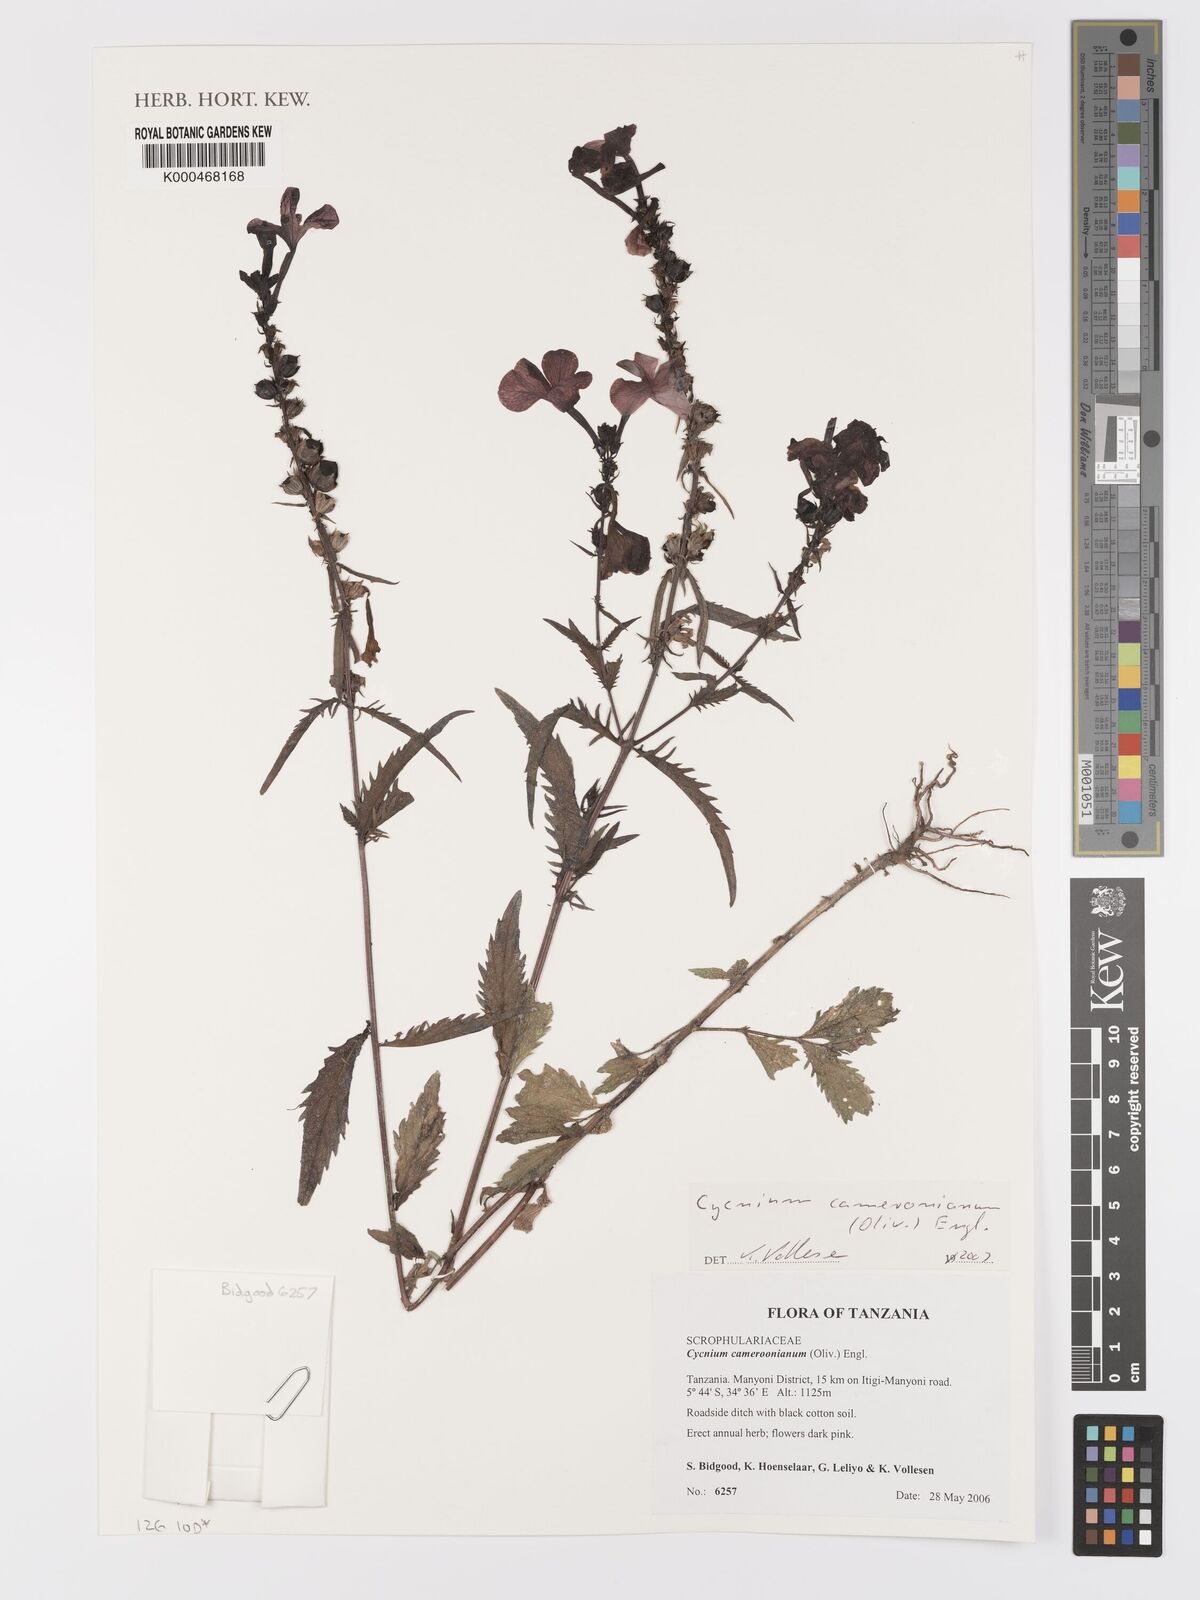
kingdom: Plantae
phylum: Tracheophyta
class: Magnoliopsida
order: Lamiales
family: Orobanchaceae
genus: Cycnium
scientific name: Cycnium cameronianum
